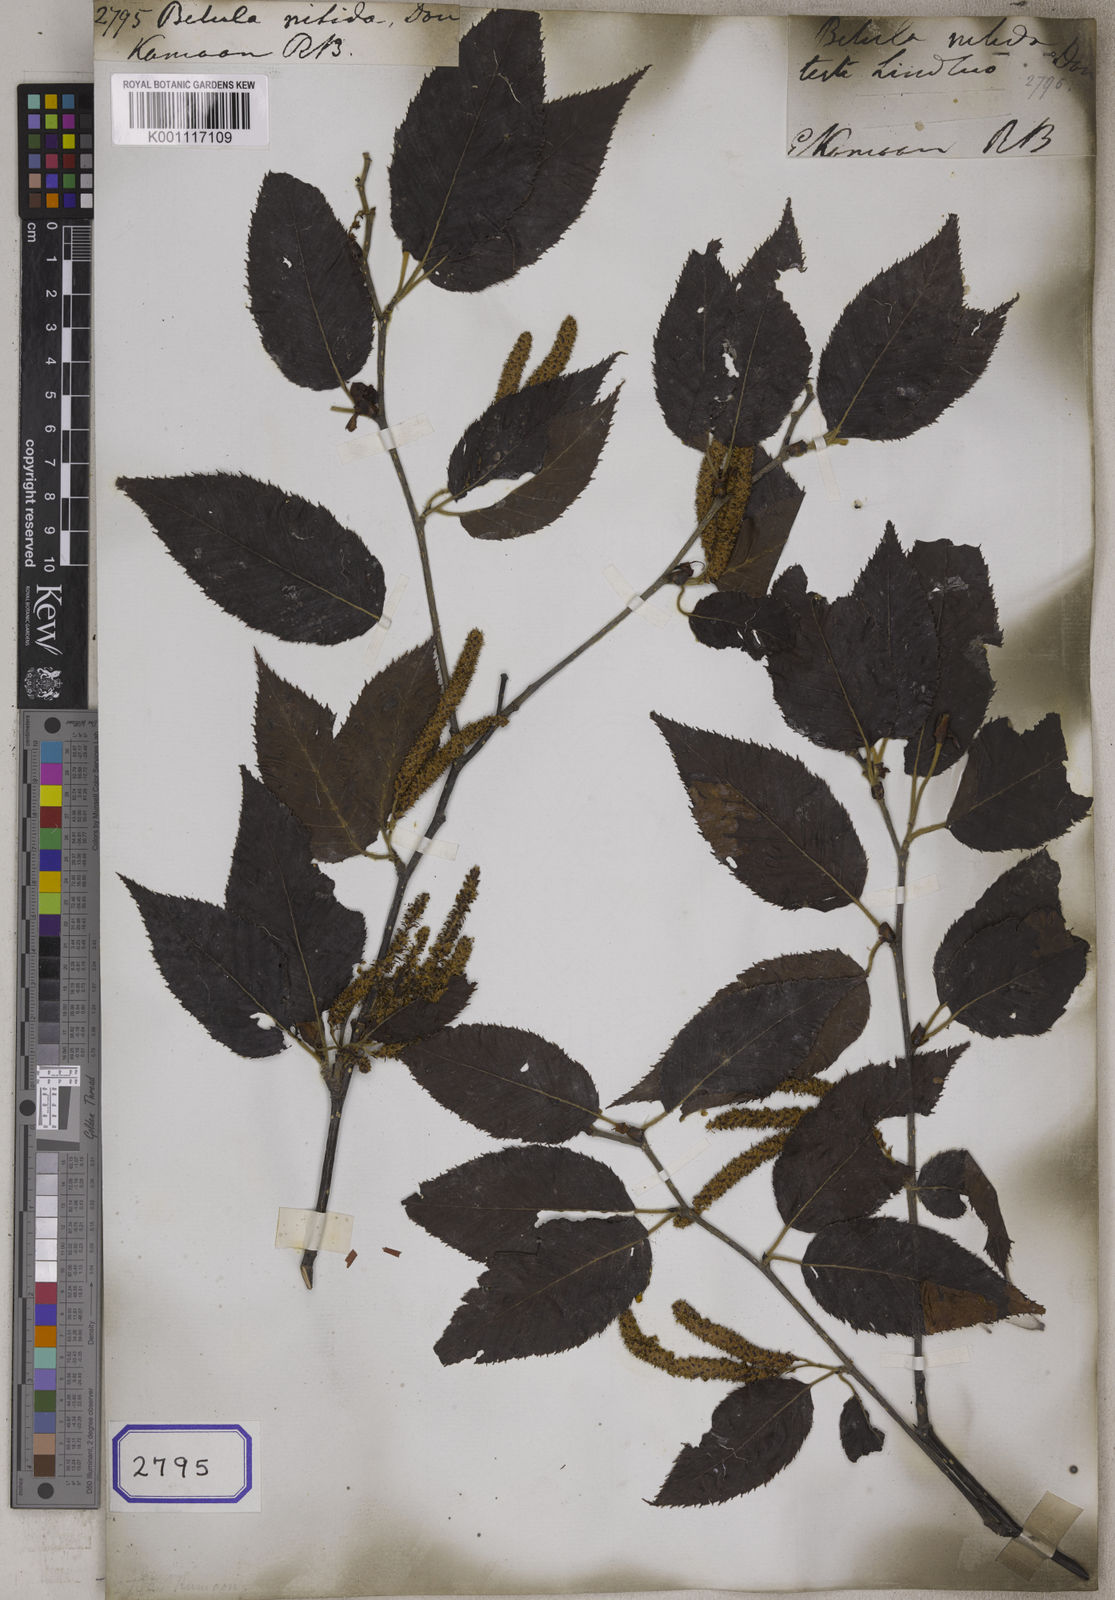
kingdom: Plantae
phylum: Tracheophyta
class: Magnoliopsida
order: Fagales
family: Betulaceae
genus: Betula
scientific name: Betula alnoides
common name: Indian birch
